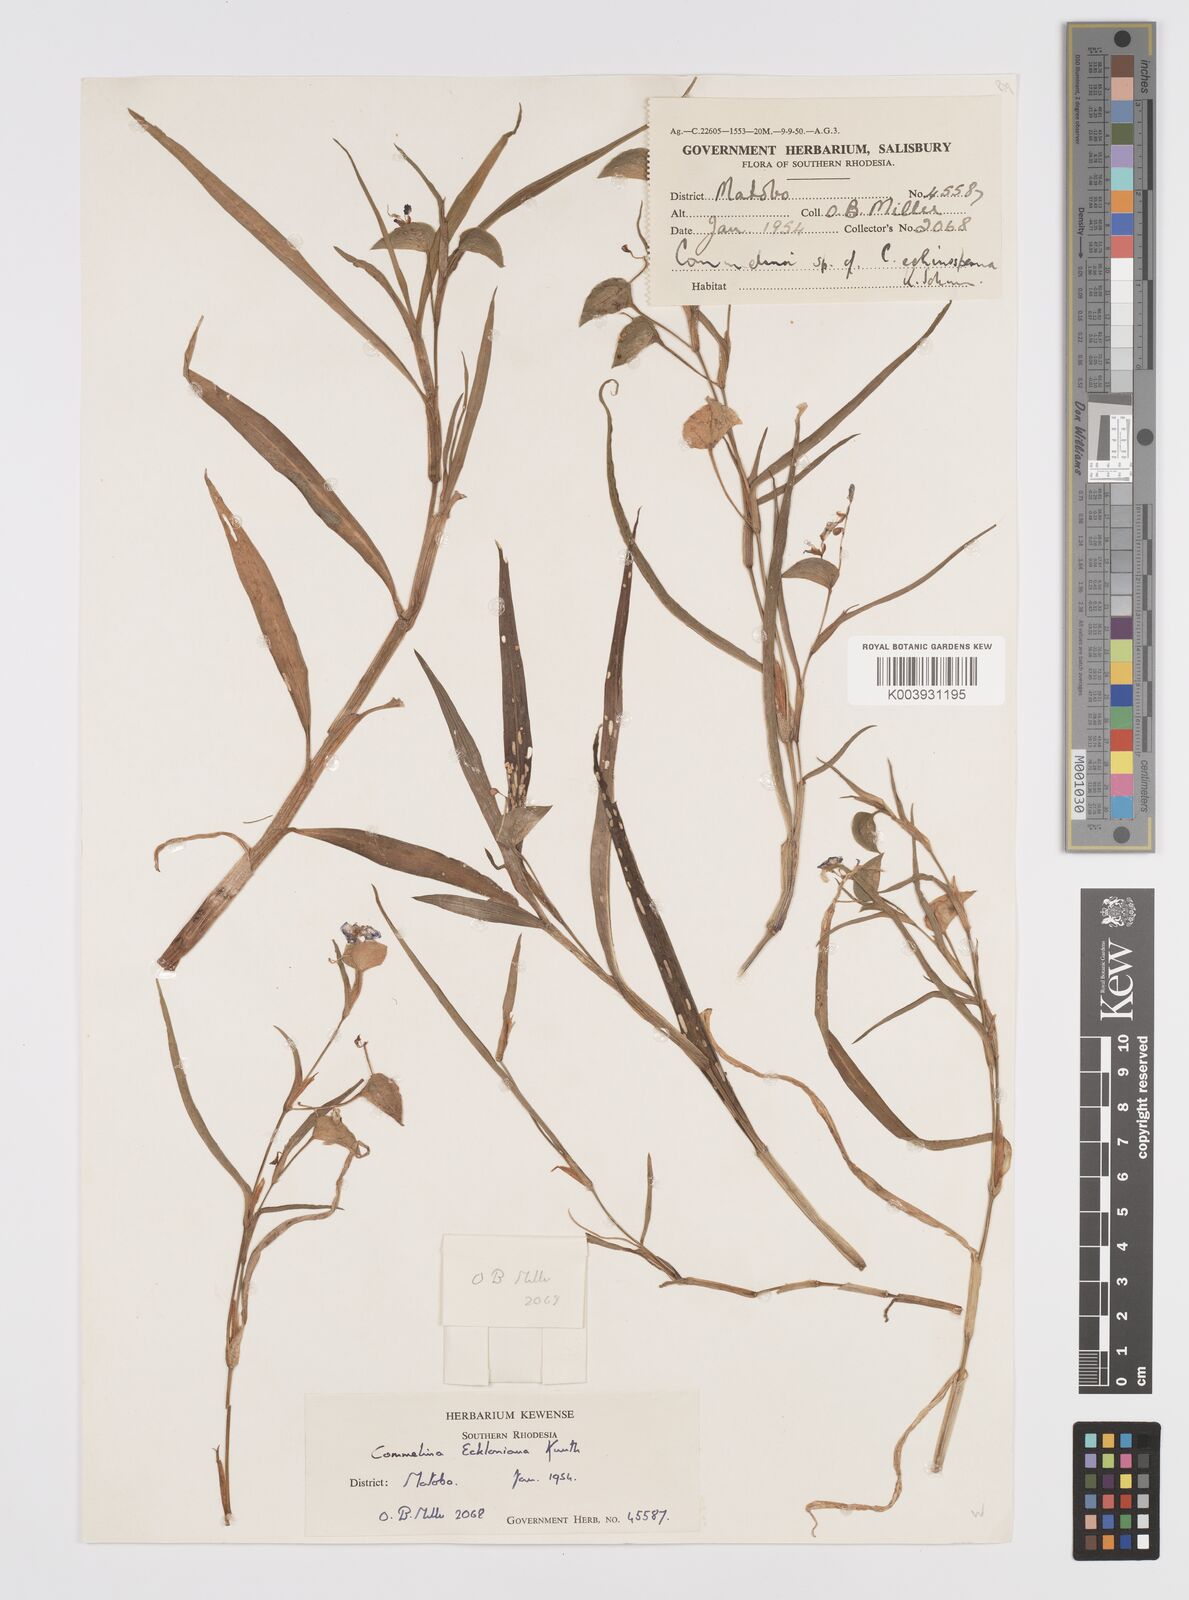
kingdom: Plantae
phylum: Tracheophyta
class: Liliopsida
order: Commelinales
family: Commelinaceae
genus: Commelina
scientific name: Commelina eckloniana
